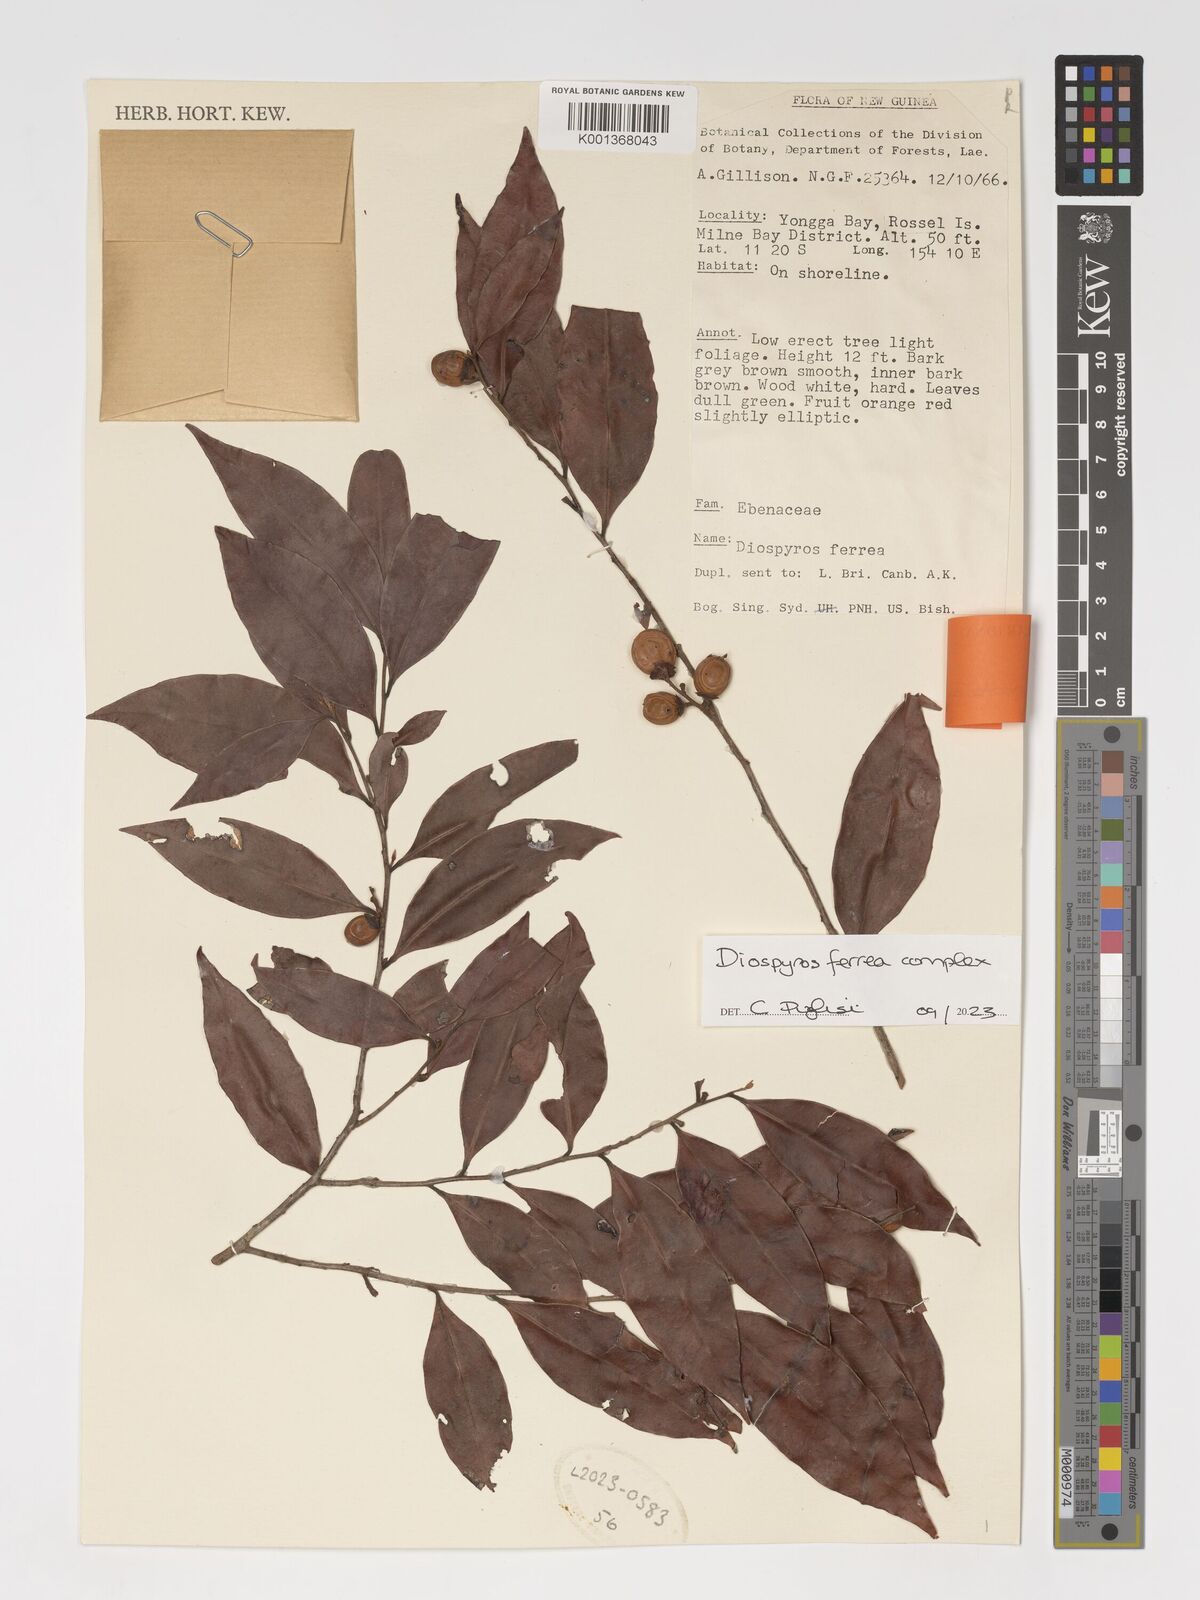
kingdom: Plantae
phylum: Tracheophyta
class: Magnoliopsida
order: Ericales
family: Ebenaceae
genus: Diospyros
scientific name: Diospyros ferrea
